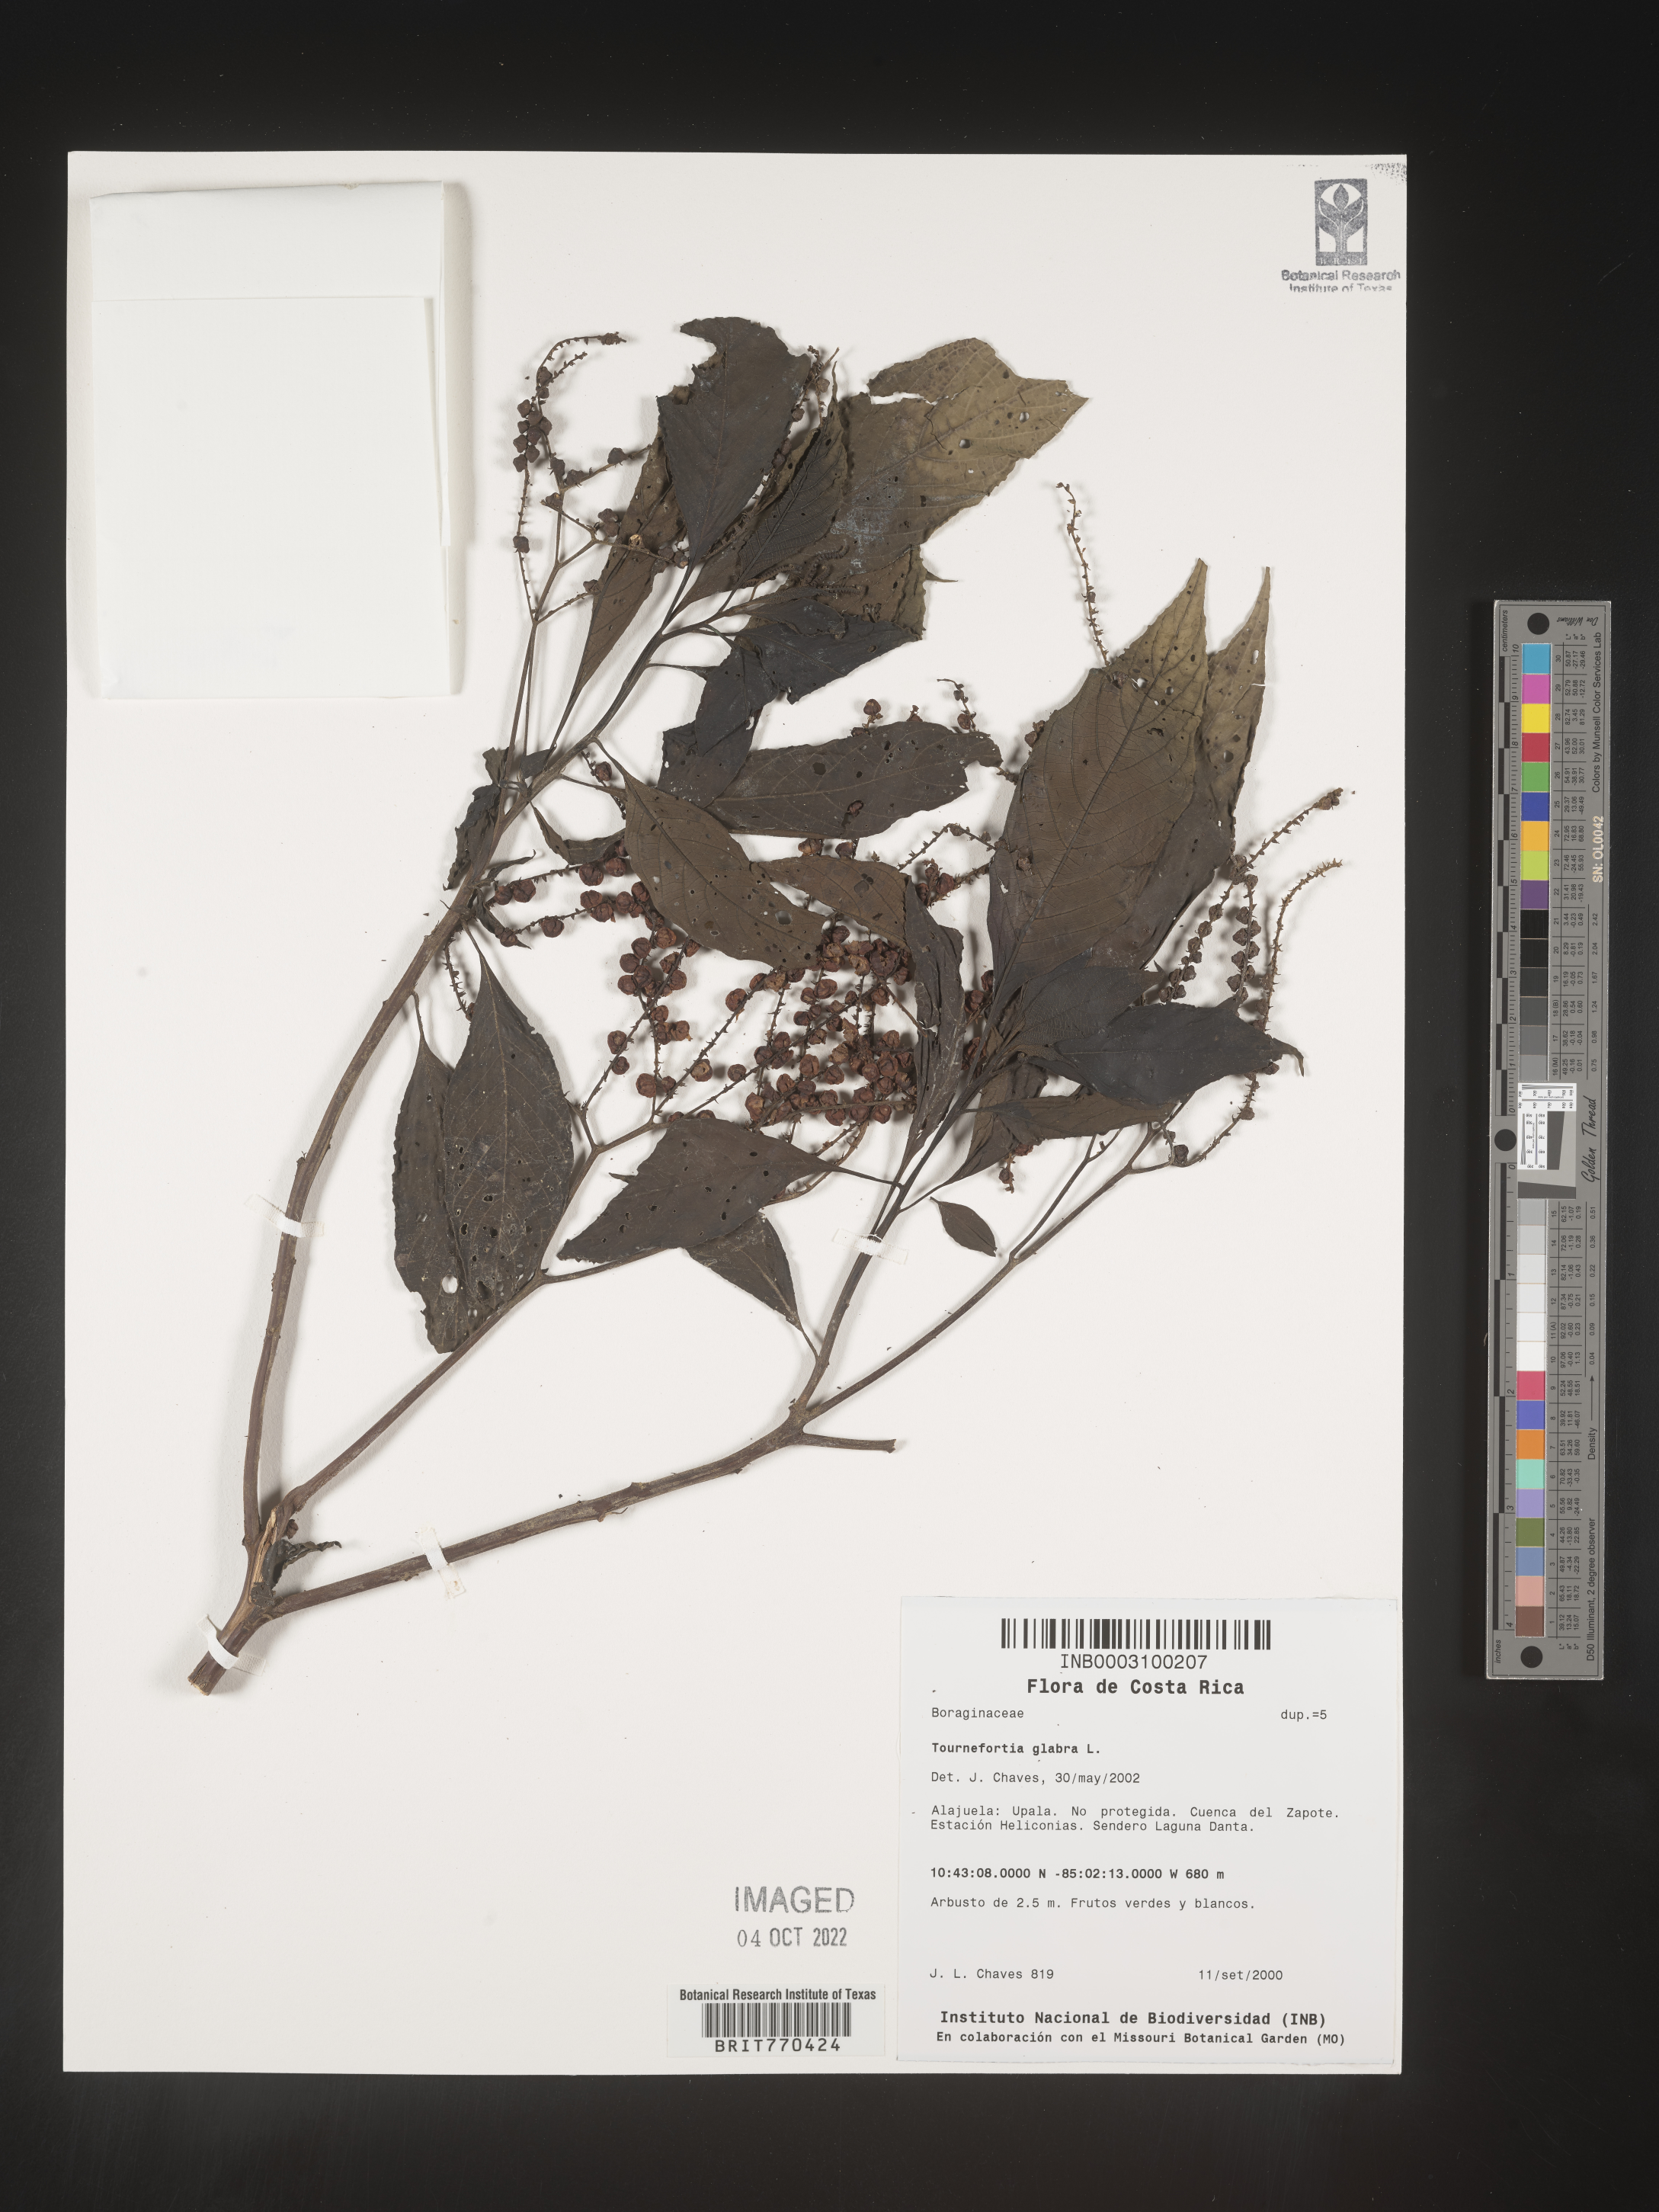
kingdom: Plantae
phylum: Tracheophyta
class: Magnoliopsida
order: Boraginales
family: Heliotropiaceae
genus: Tournefortia
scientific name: Tournefortia
